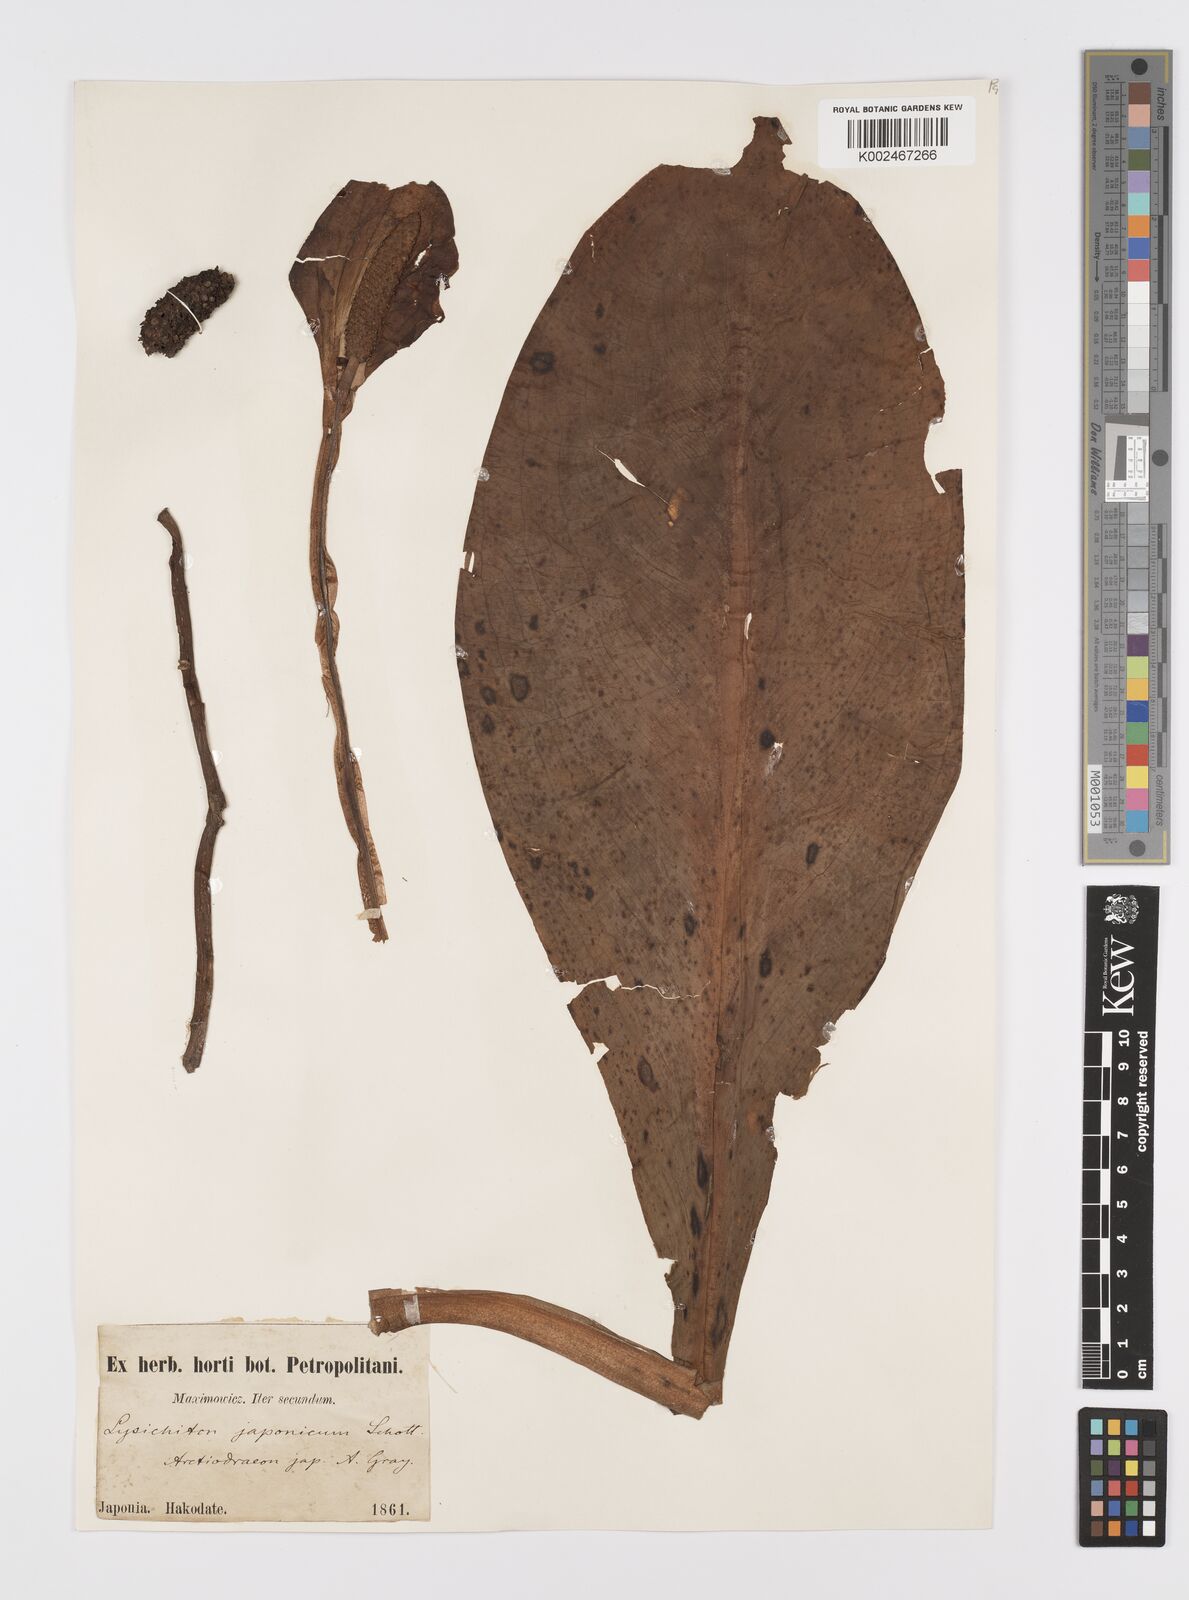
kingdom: Plantae
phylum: Tracheophyta
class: Liliopsida
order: Alismatales
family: Araceae
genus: Lysichiton
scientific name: Lysichiton camtschatcensis
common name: Asian skunk-cabbage
